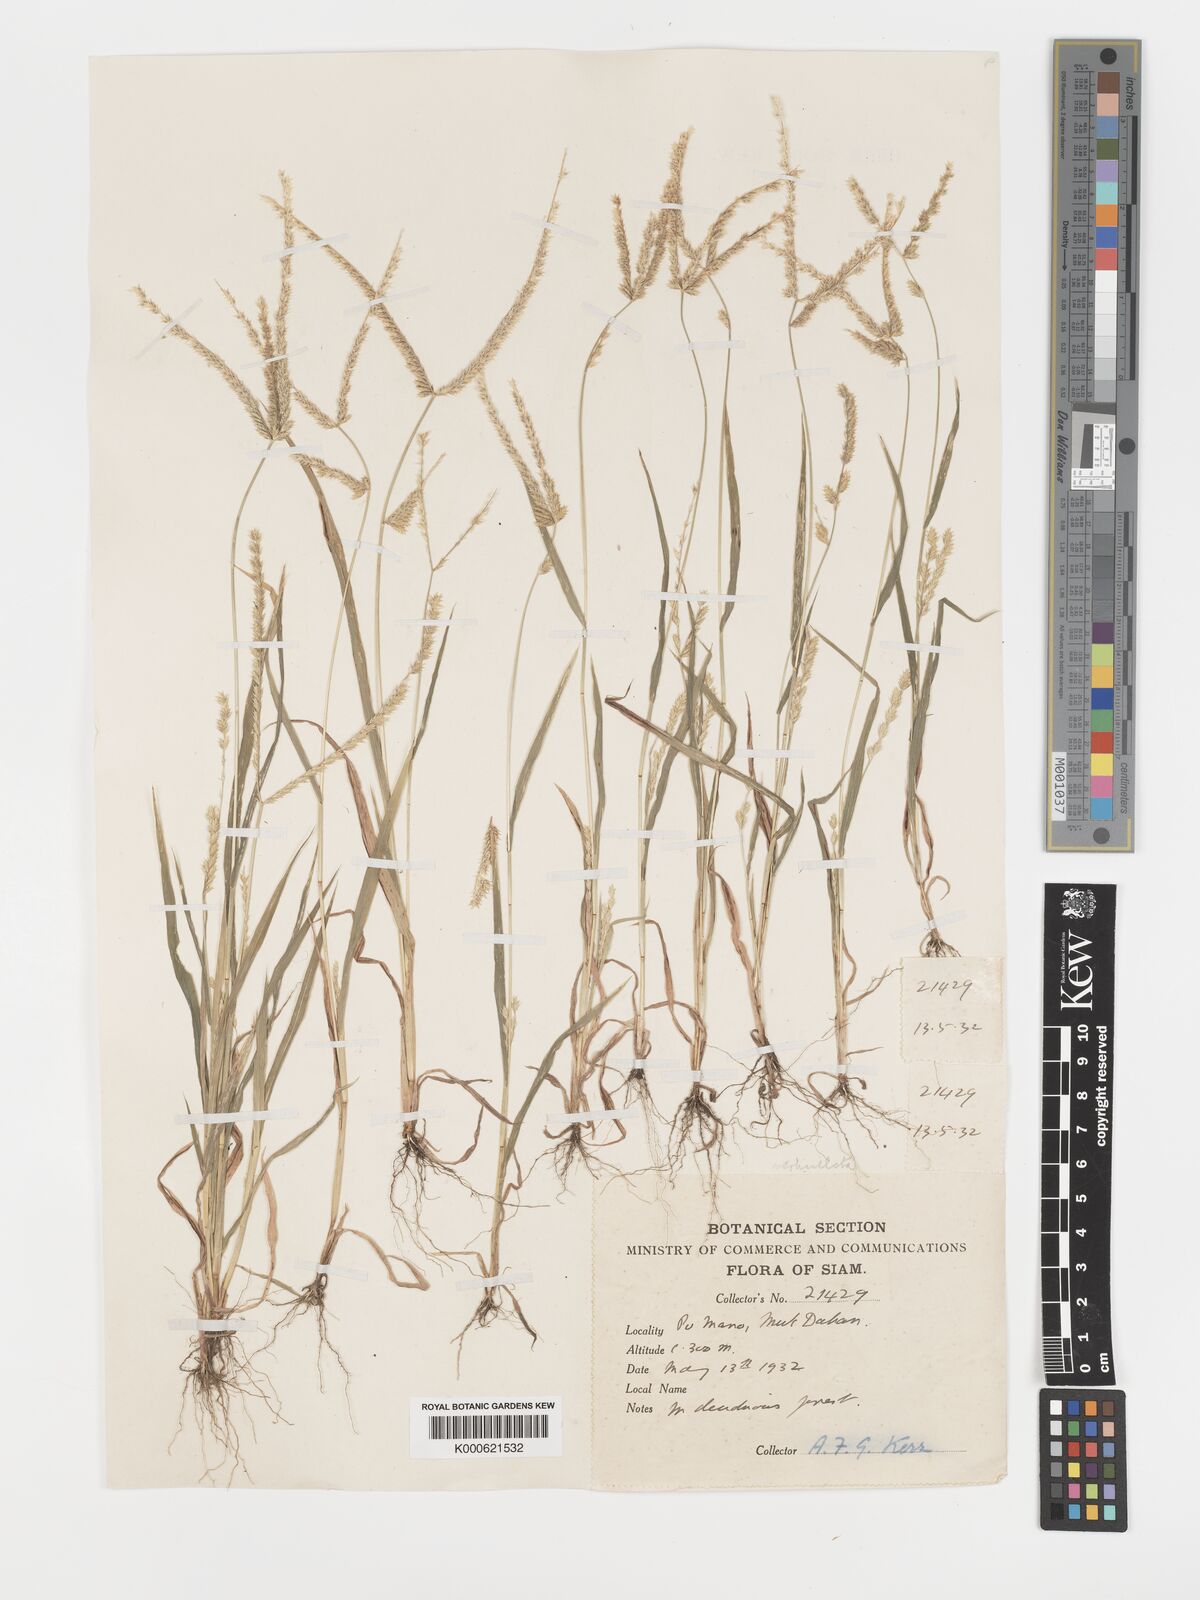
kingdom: Plantae
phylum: Tracheophyta
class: Liliopsida
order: Poales
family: Poaceae
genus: Acrachne
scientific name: Acrachne racemosa
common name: Goosegrass
